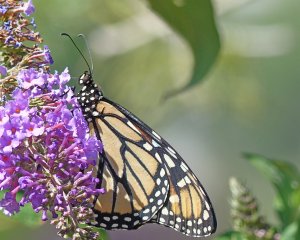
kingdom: Animalia
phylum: Arthropoda
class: Insecta
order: Lepidoptera
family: Nymphalidae
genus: Danaus
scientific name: Danaus plexippus
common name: Monarch
